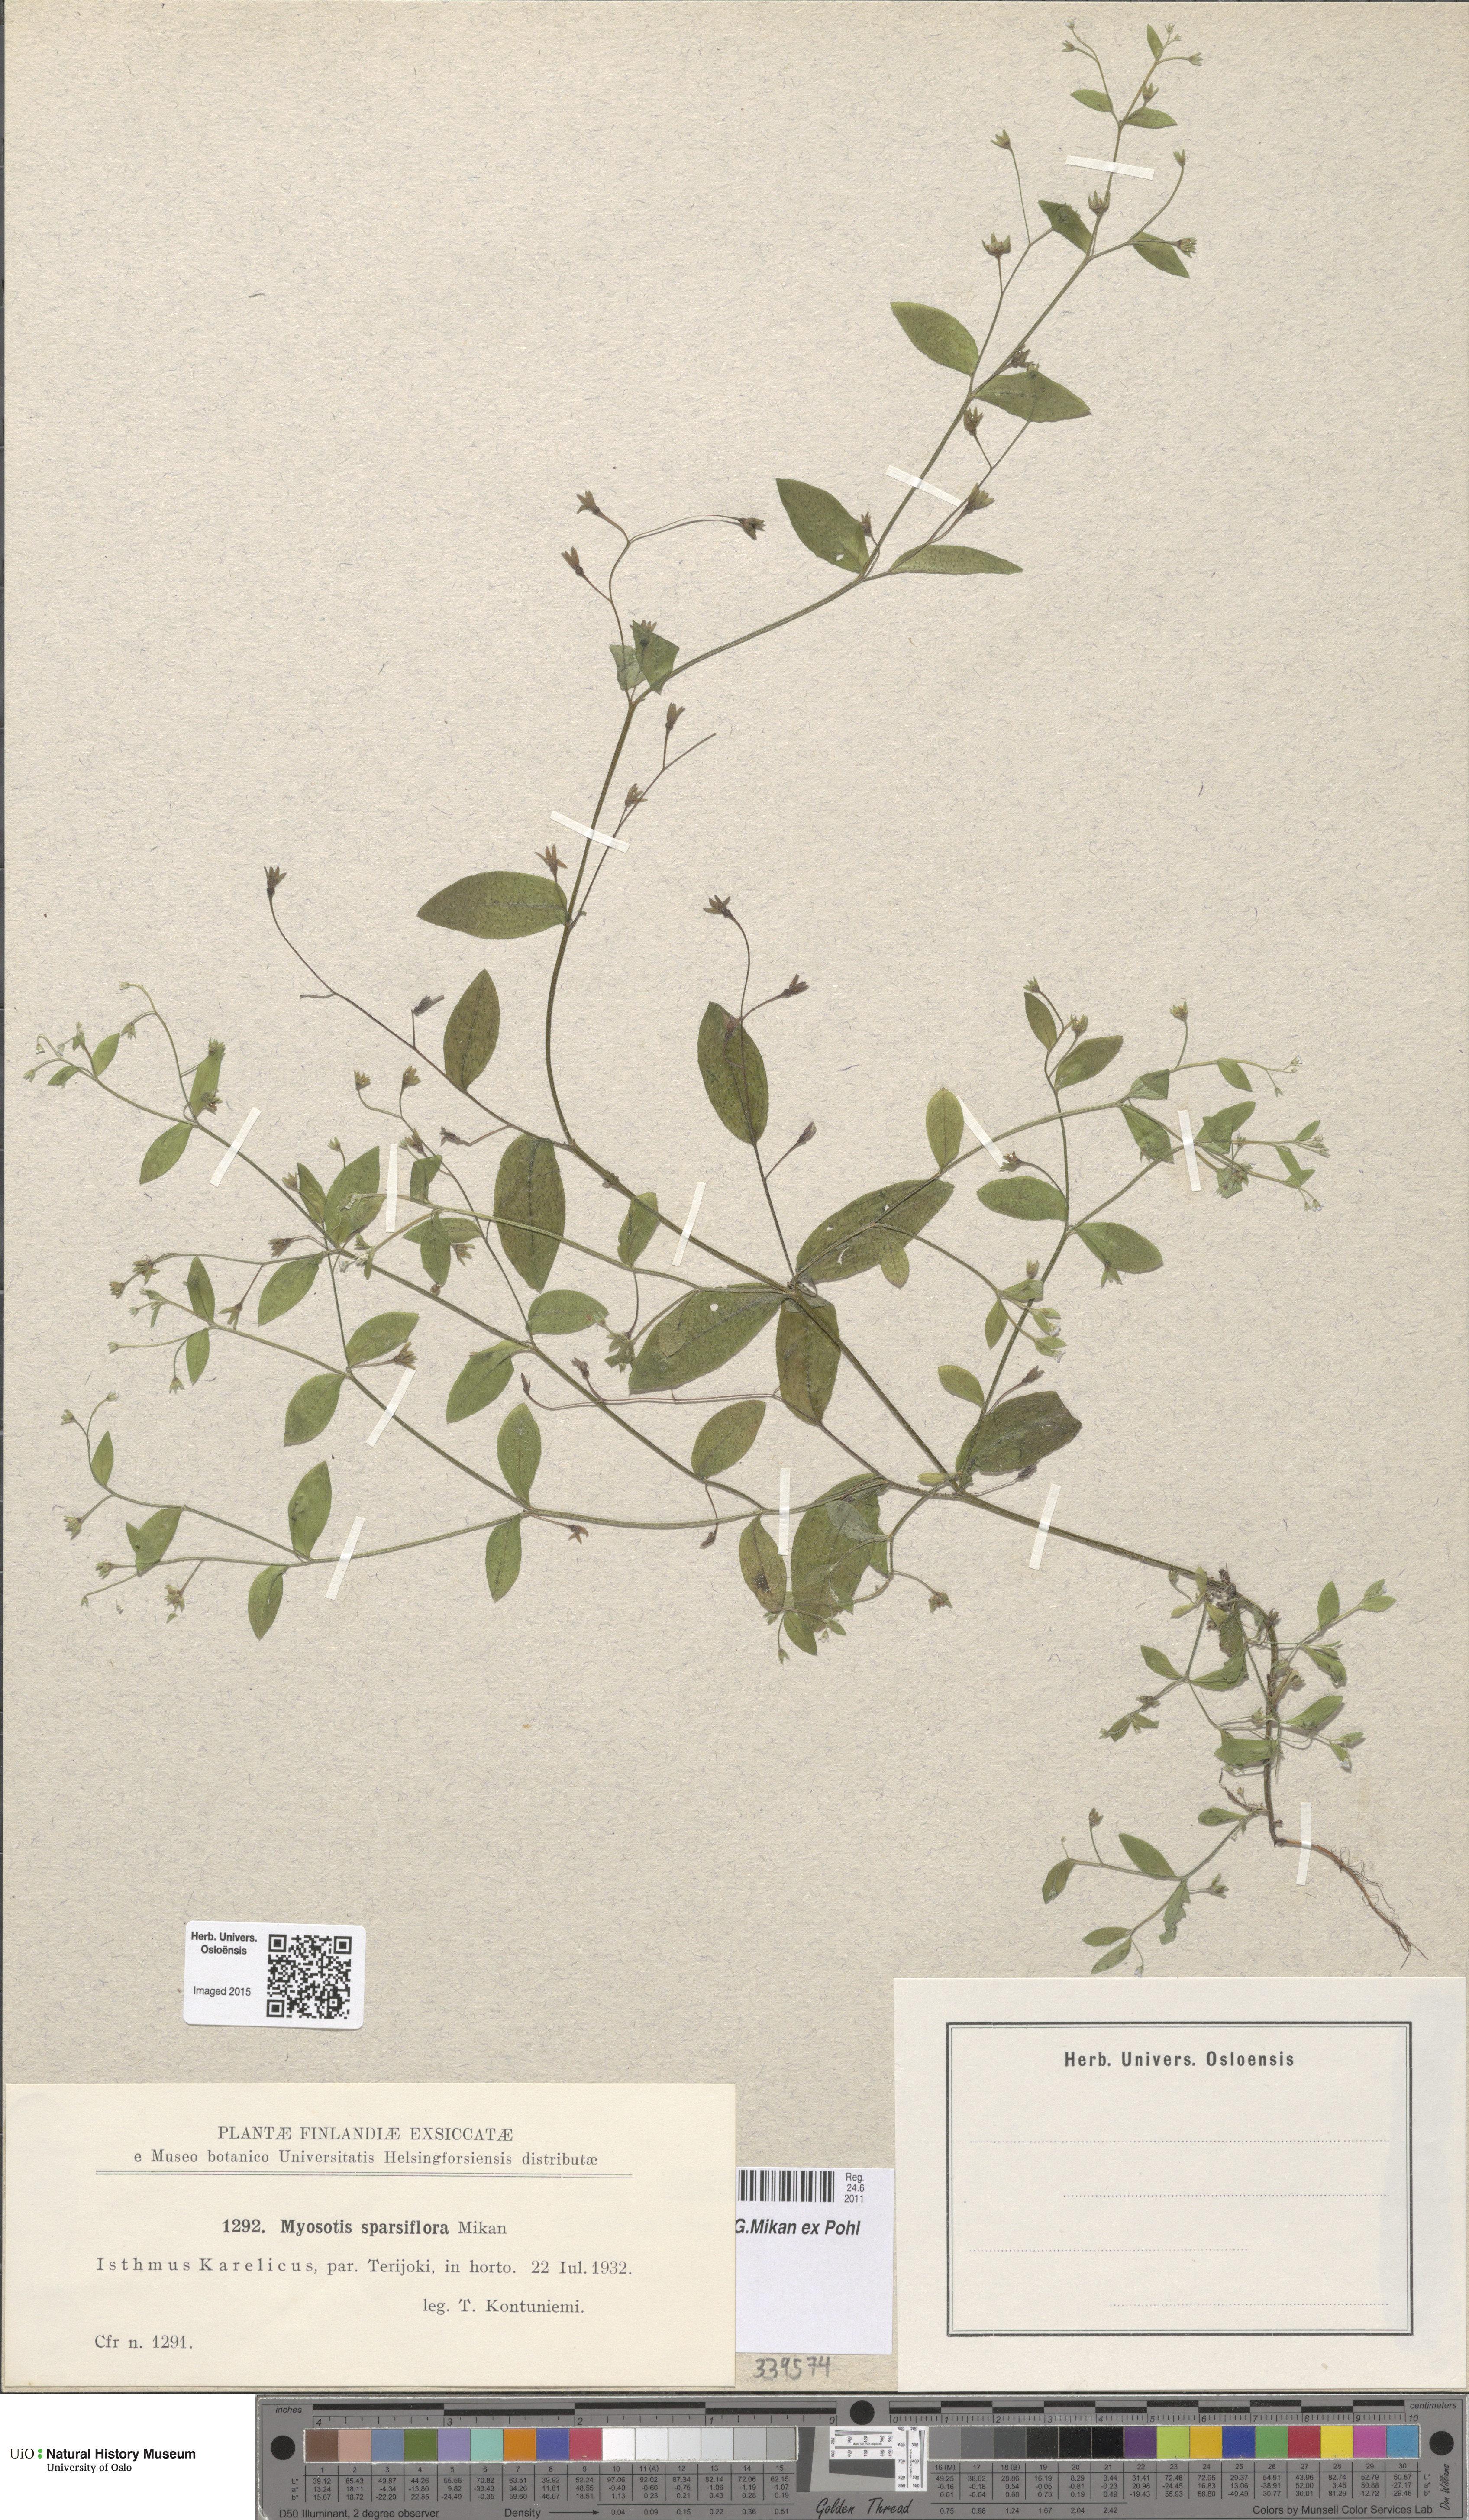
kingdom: Plantae
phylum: Tracheophyta
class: Magnoliopsida
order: Boraginales
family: Boraginaceae
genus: Myosotis
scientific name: Myosotis sparsiflora
